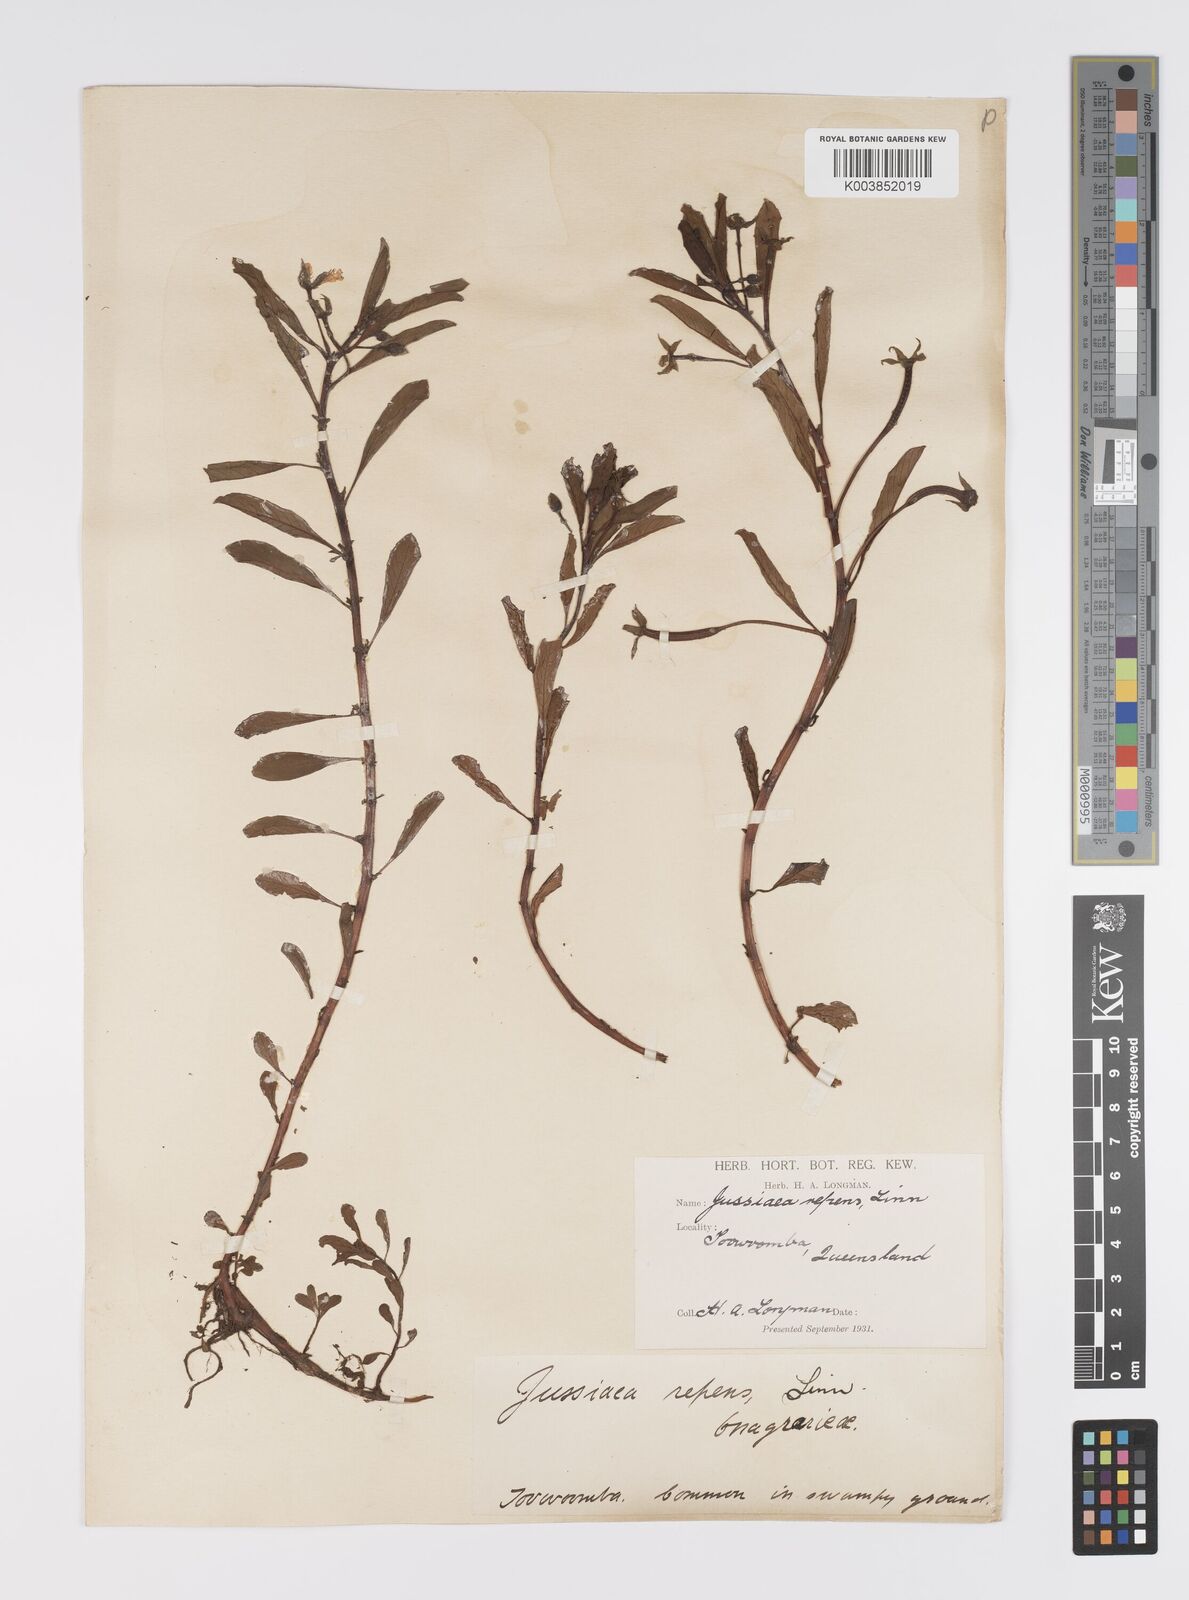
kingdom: Plantae
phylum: Tracheophyta
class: Magnoliopsida
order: Myrtales
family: Onagraceae
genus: Ludwigia
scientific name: Ludwigia peploides
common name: Floating primrose-willow
